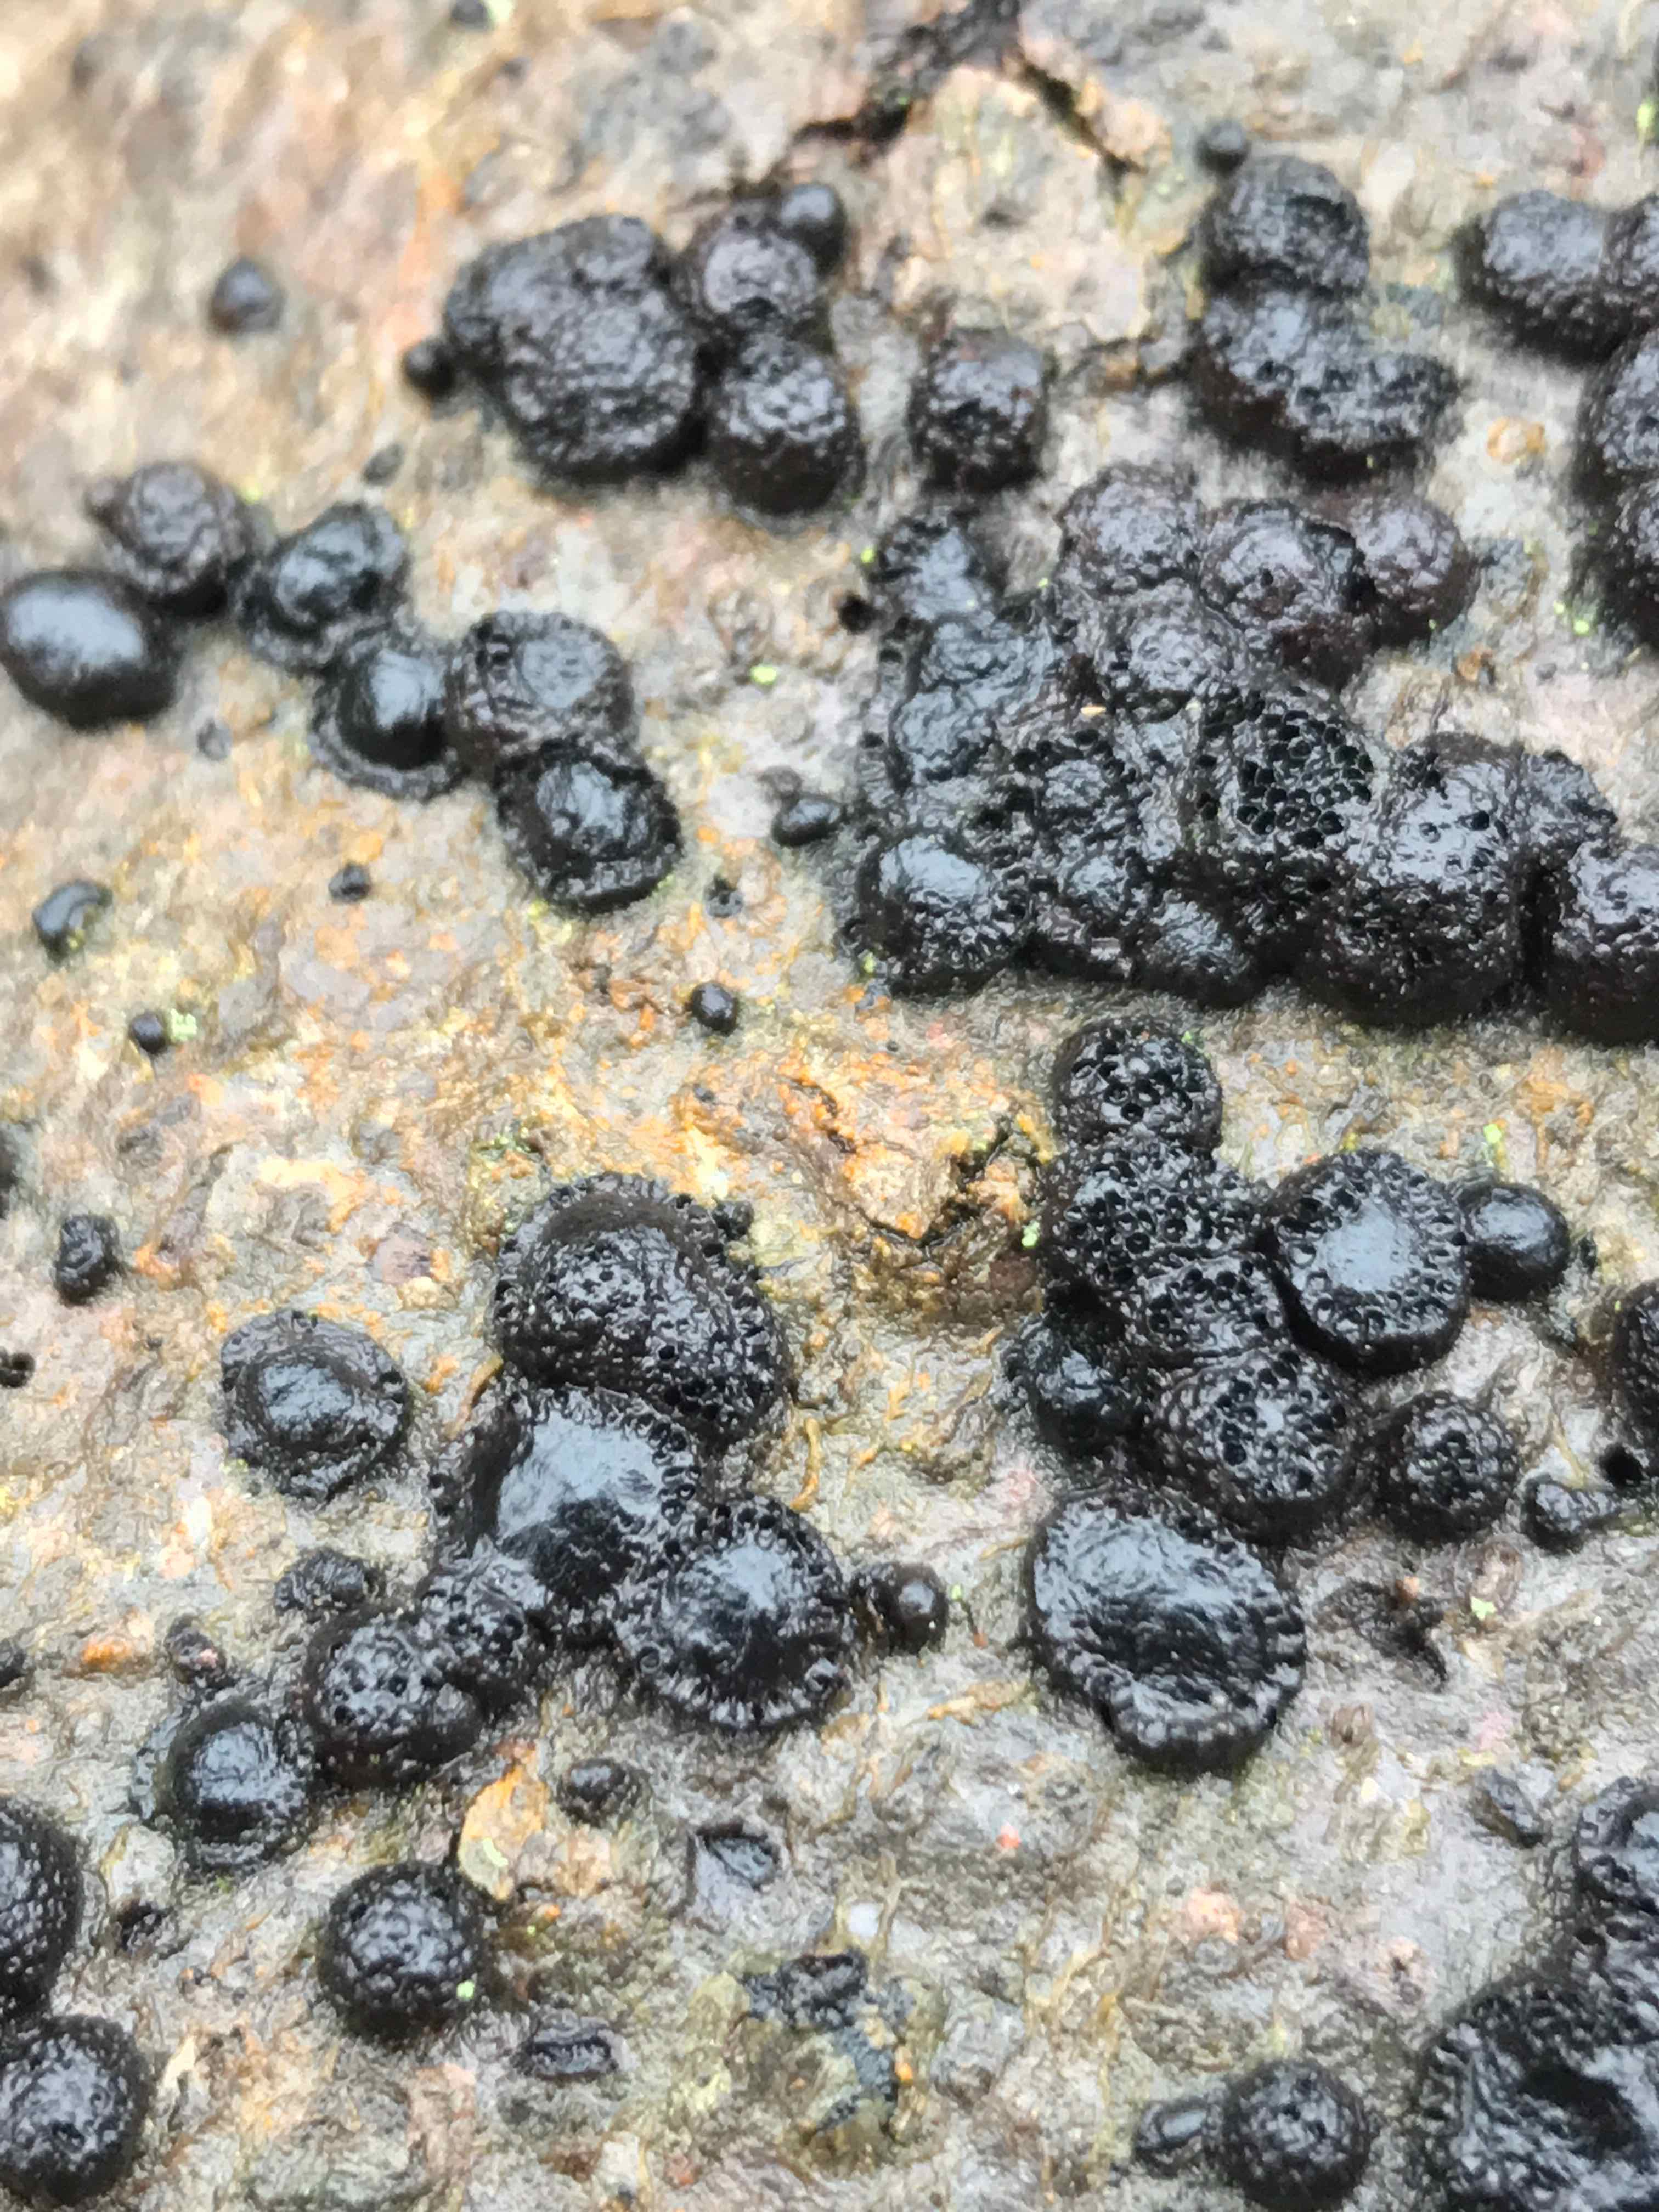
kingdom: Fungi
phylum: Ascomycota
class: Sordariomycetes
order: Xylariales
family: Hypoxylaceae
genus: Hypoxylon
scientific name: Hypoxylon fragiforme
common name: kuljordbær
